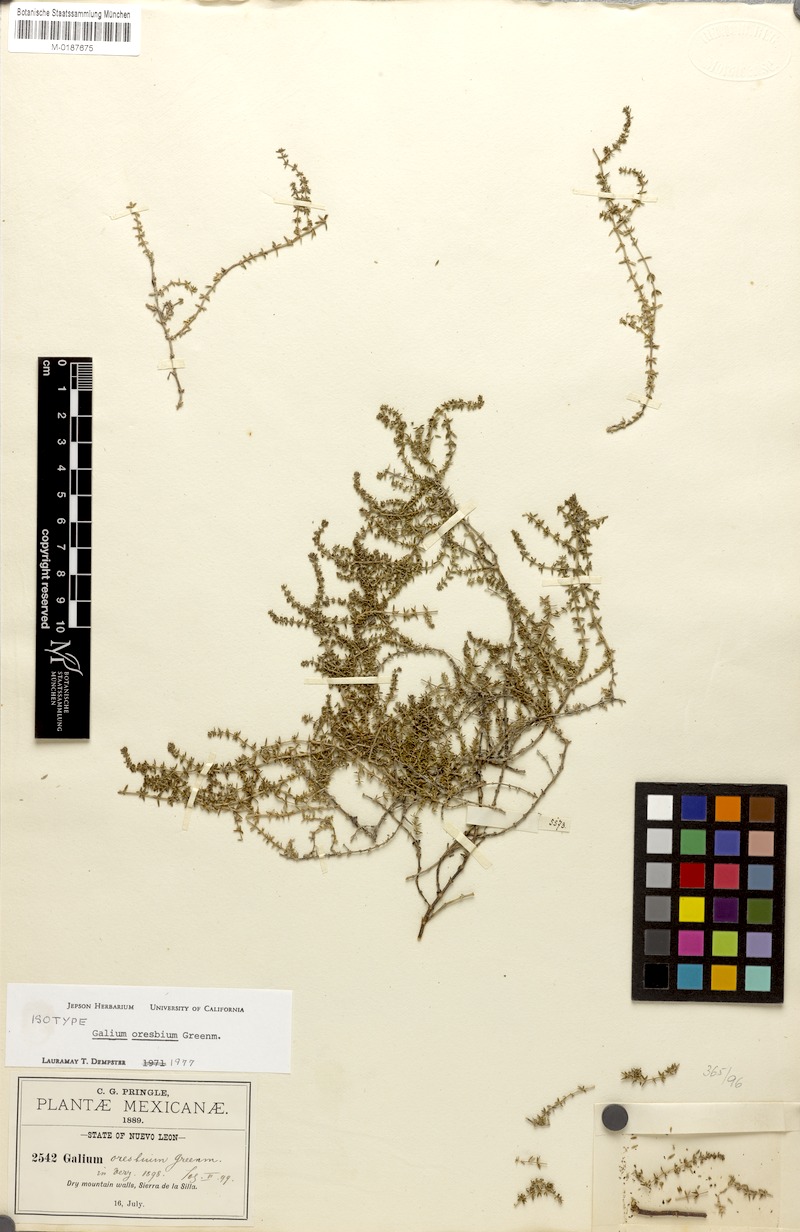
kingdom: Plantae
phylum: Tracheophyta
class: Magnoliopsida
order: Gentianales
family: Rubiaceae
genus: Galium
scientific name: Galium oresbium
